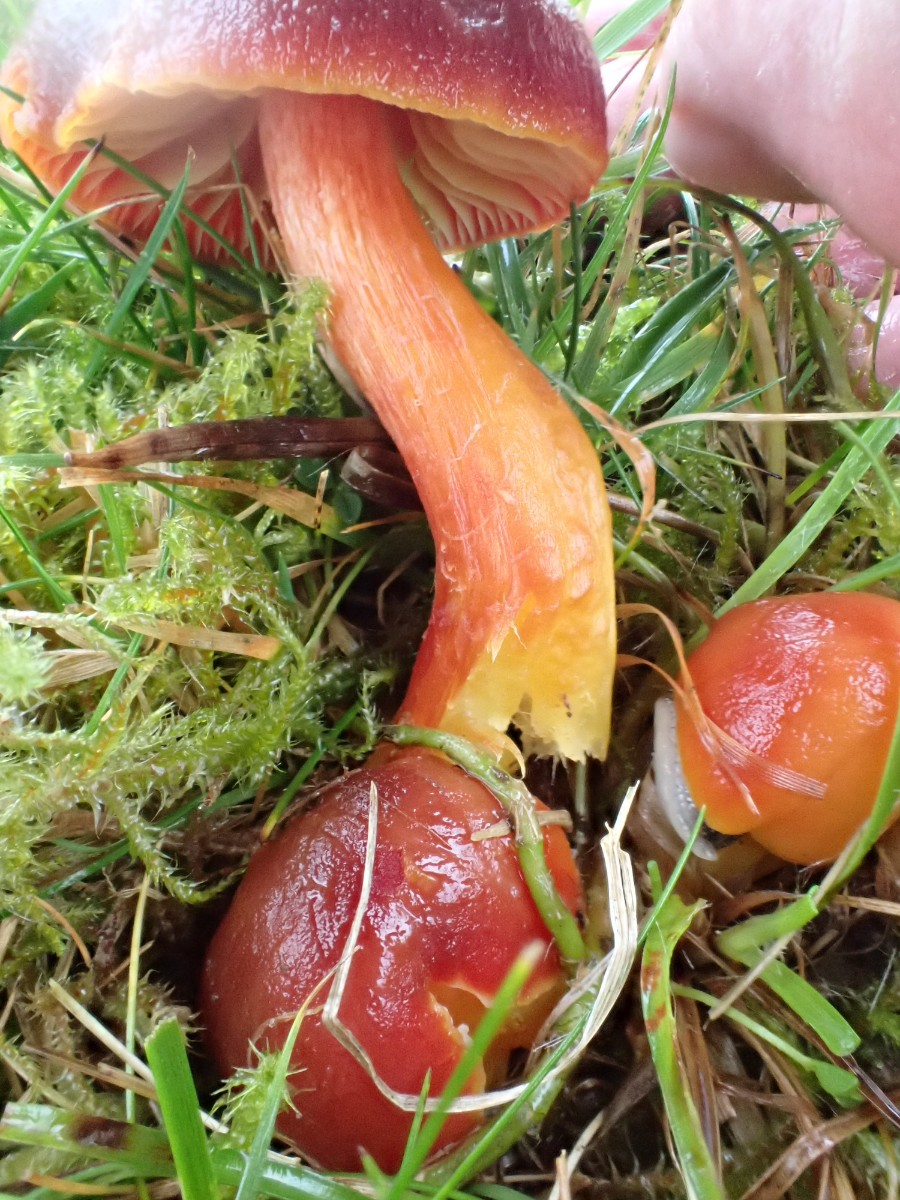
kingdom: Fungi
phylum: Basidiomycota
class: Agaricomycetes
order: Agaricales
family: Hygrophoraceae
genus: Hygrocybe
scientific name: Hygrocybe punicea
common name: skarlagen-vokshat
